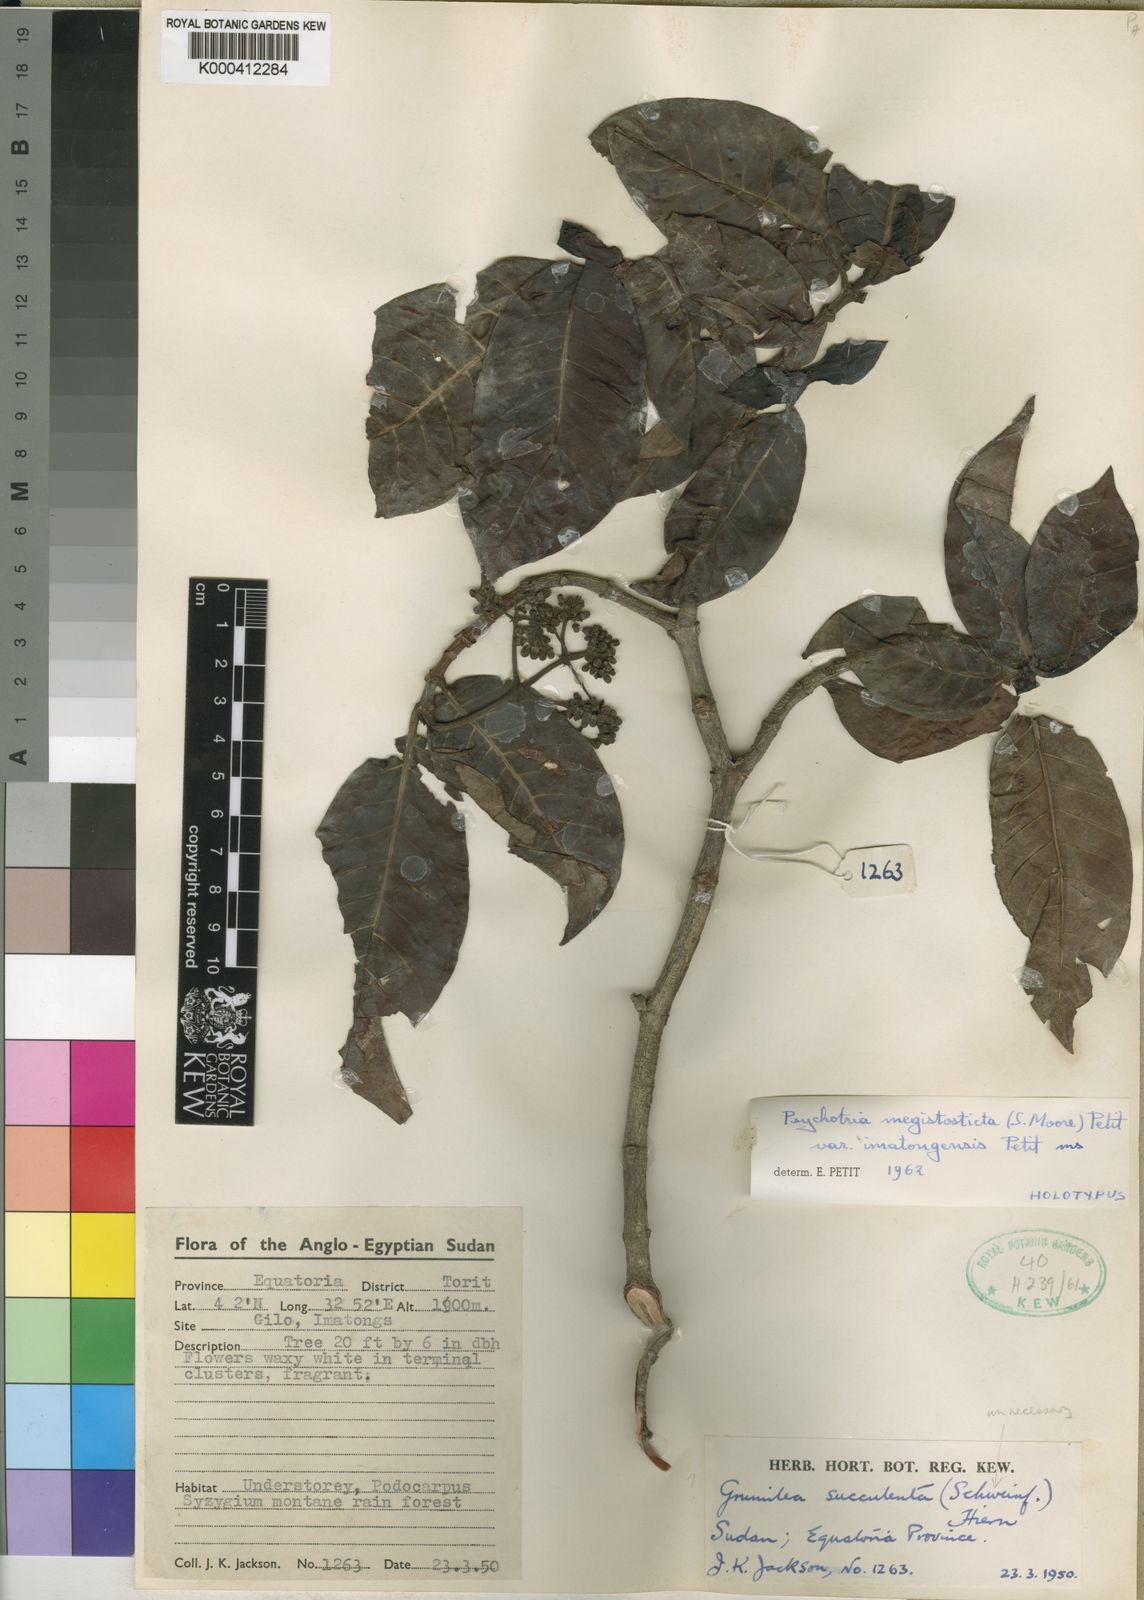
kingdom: Plantae
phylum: Tracheophyta
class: Magnoliopsida
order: Gentianales
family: Rubiaceae
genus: Psychotria
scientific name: Psychotria mahonii
